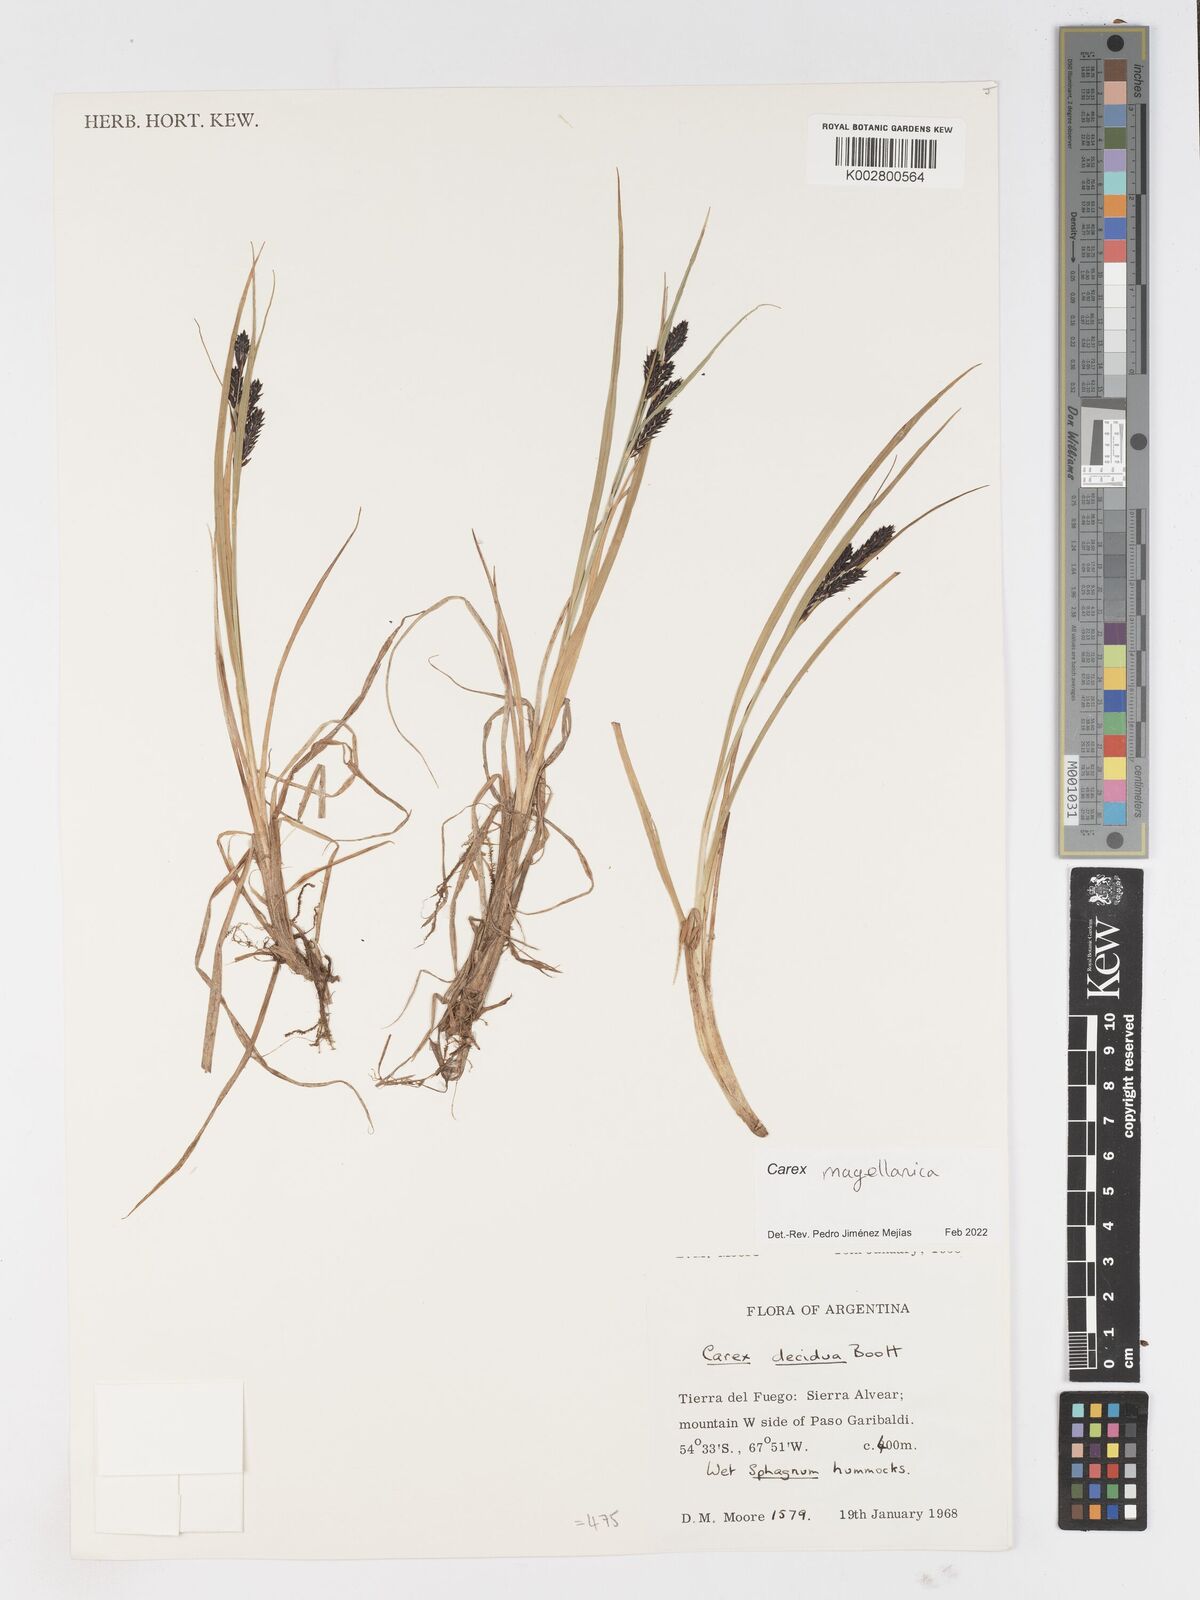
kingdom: Plantae
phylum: Tracheophyta
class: Liliopsida
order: Poales
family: Cyperaceae
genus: Carex
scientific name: Carex magellanica
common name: Bog sedge
